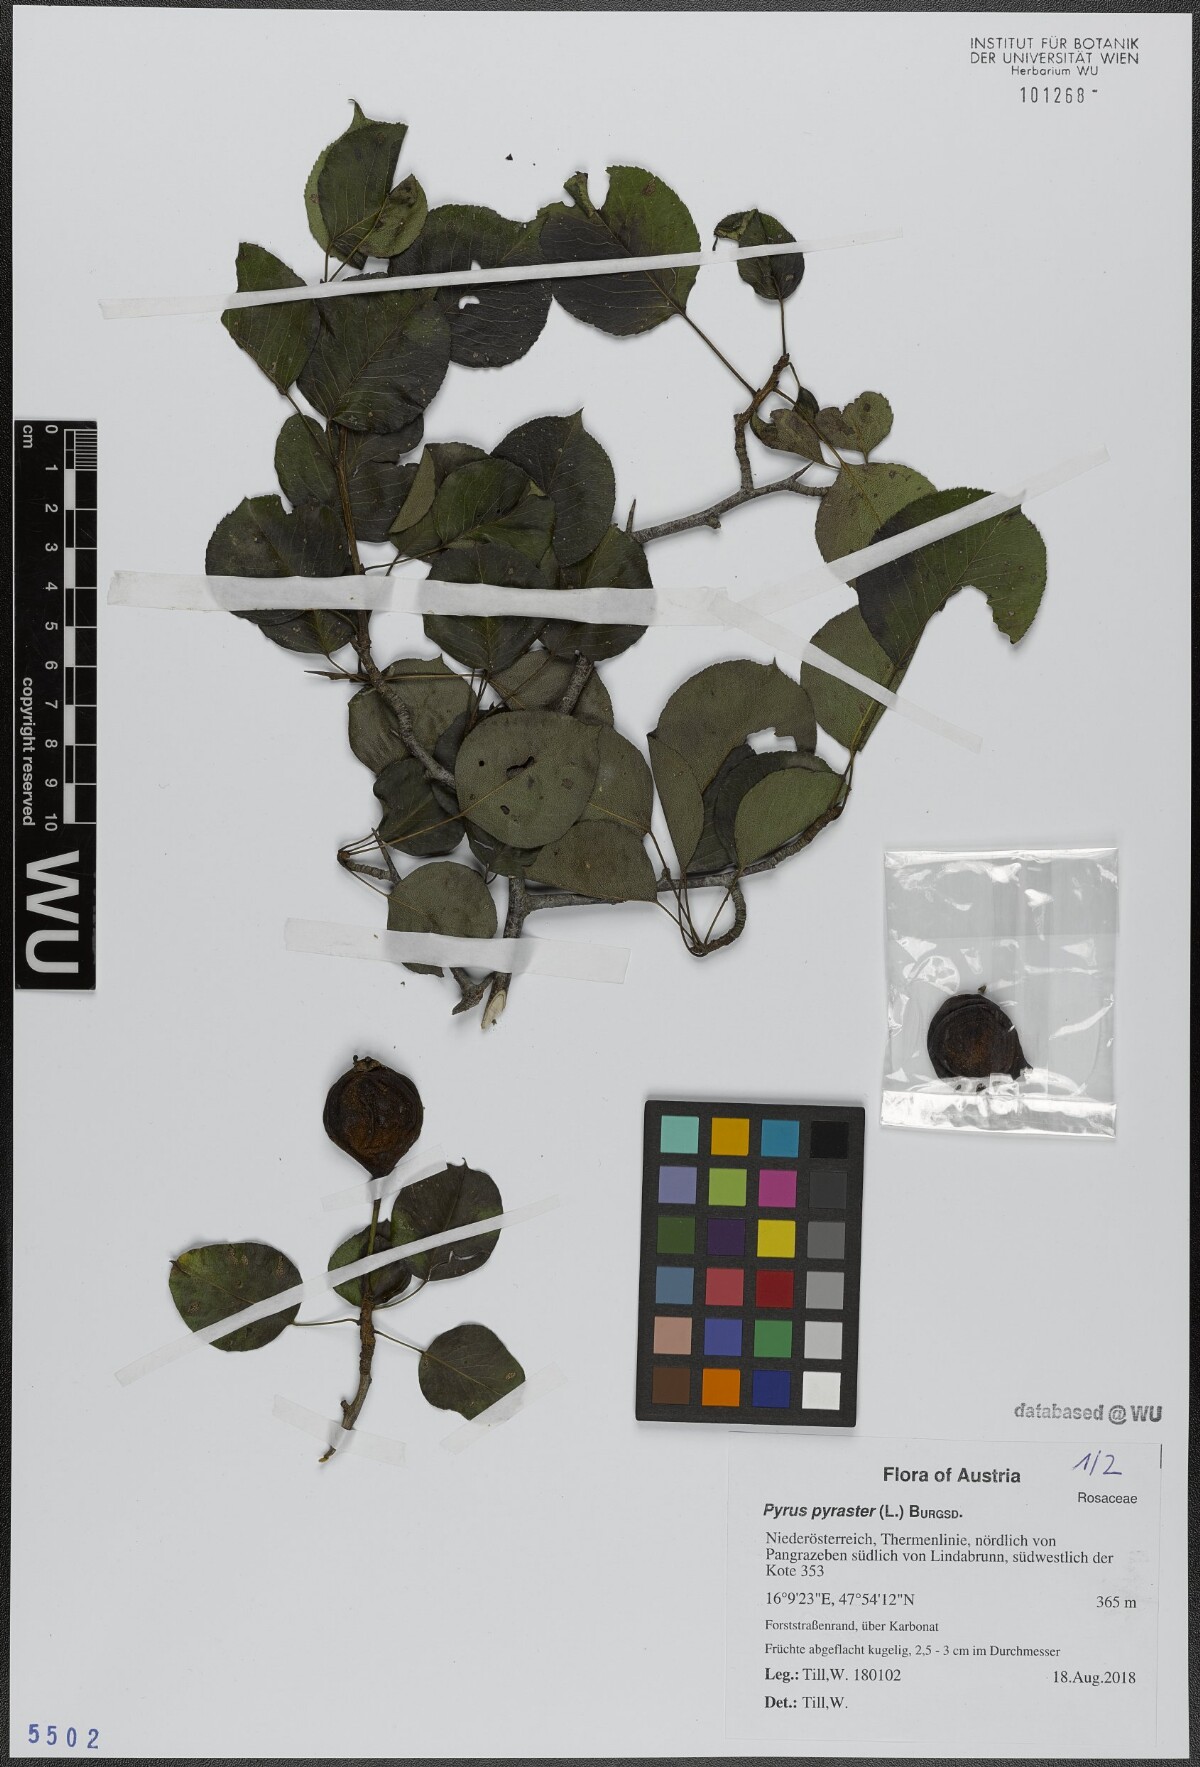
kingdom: Plantae
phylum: Tracheophyta
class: Magnoliopsida
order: Rosales
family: Rosaceae
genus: Pyrus
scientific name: Pyrus pyraster
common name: Wild pear
